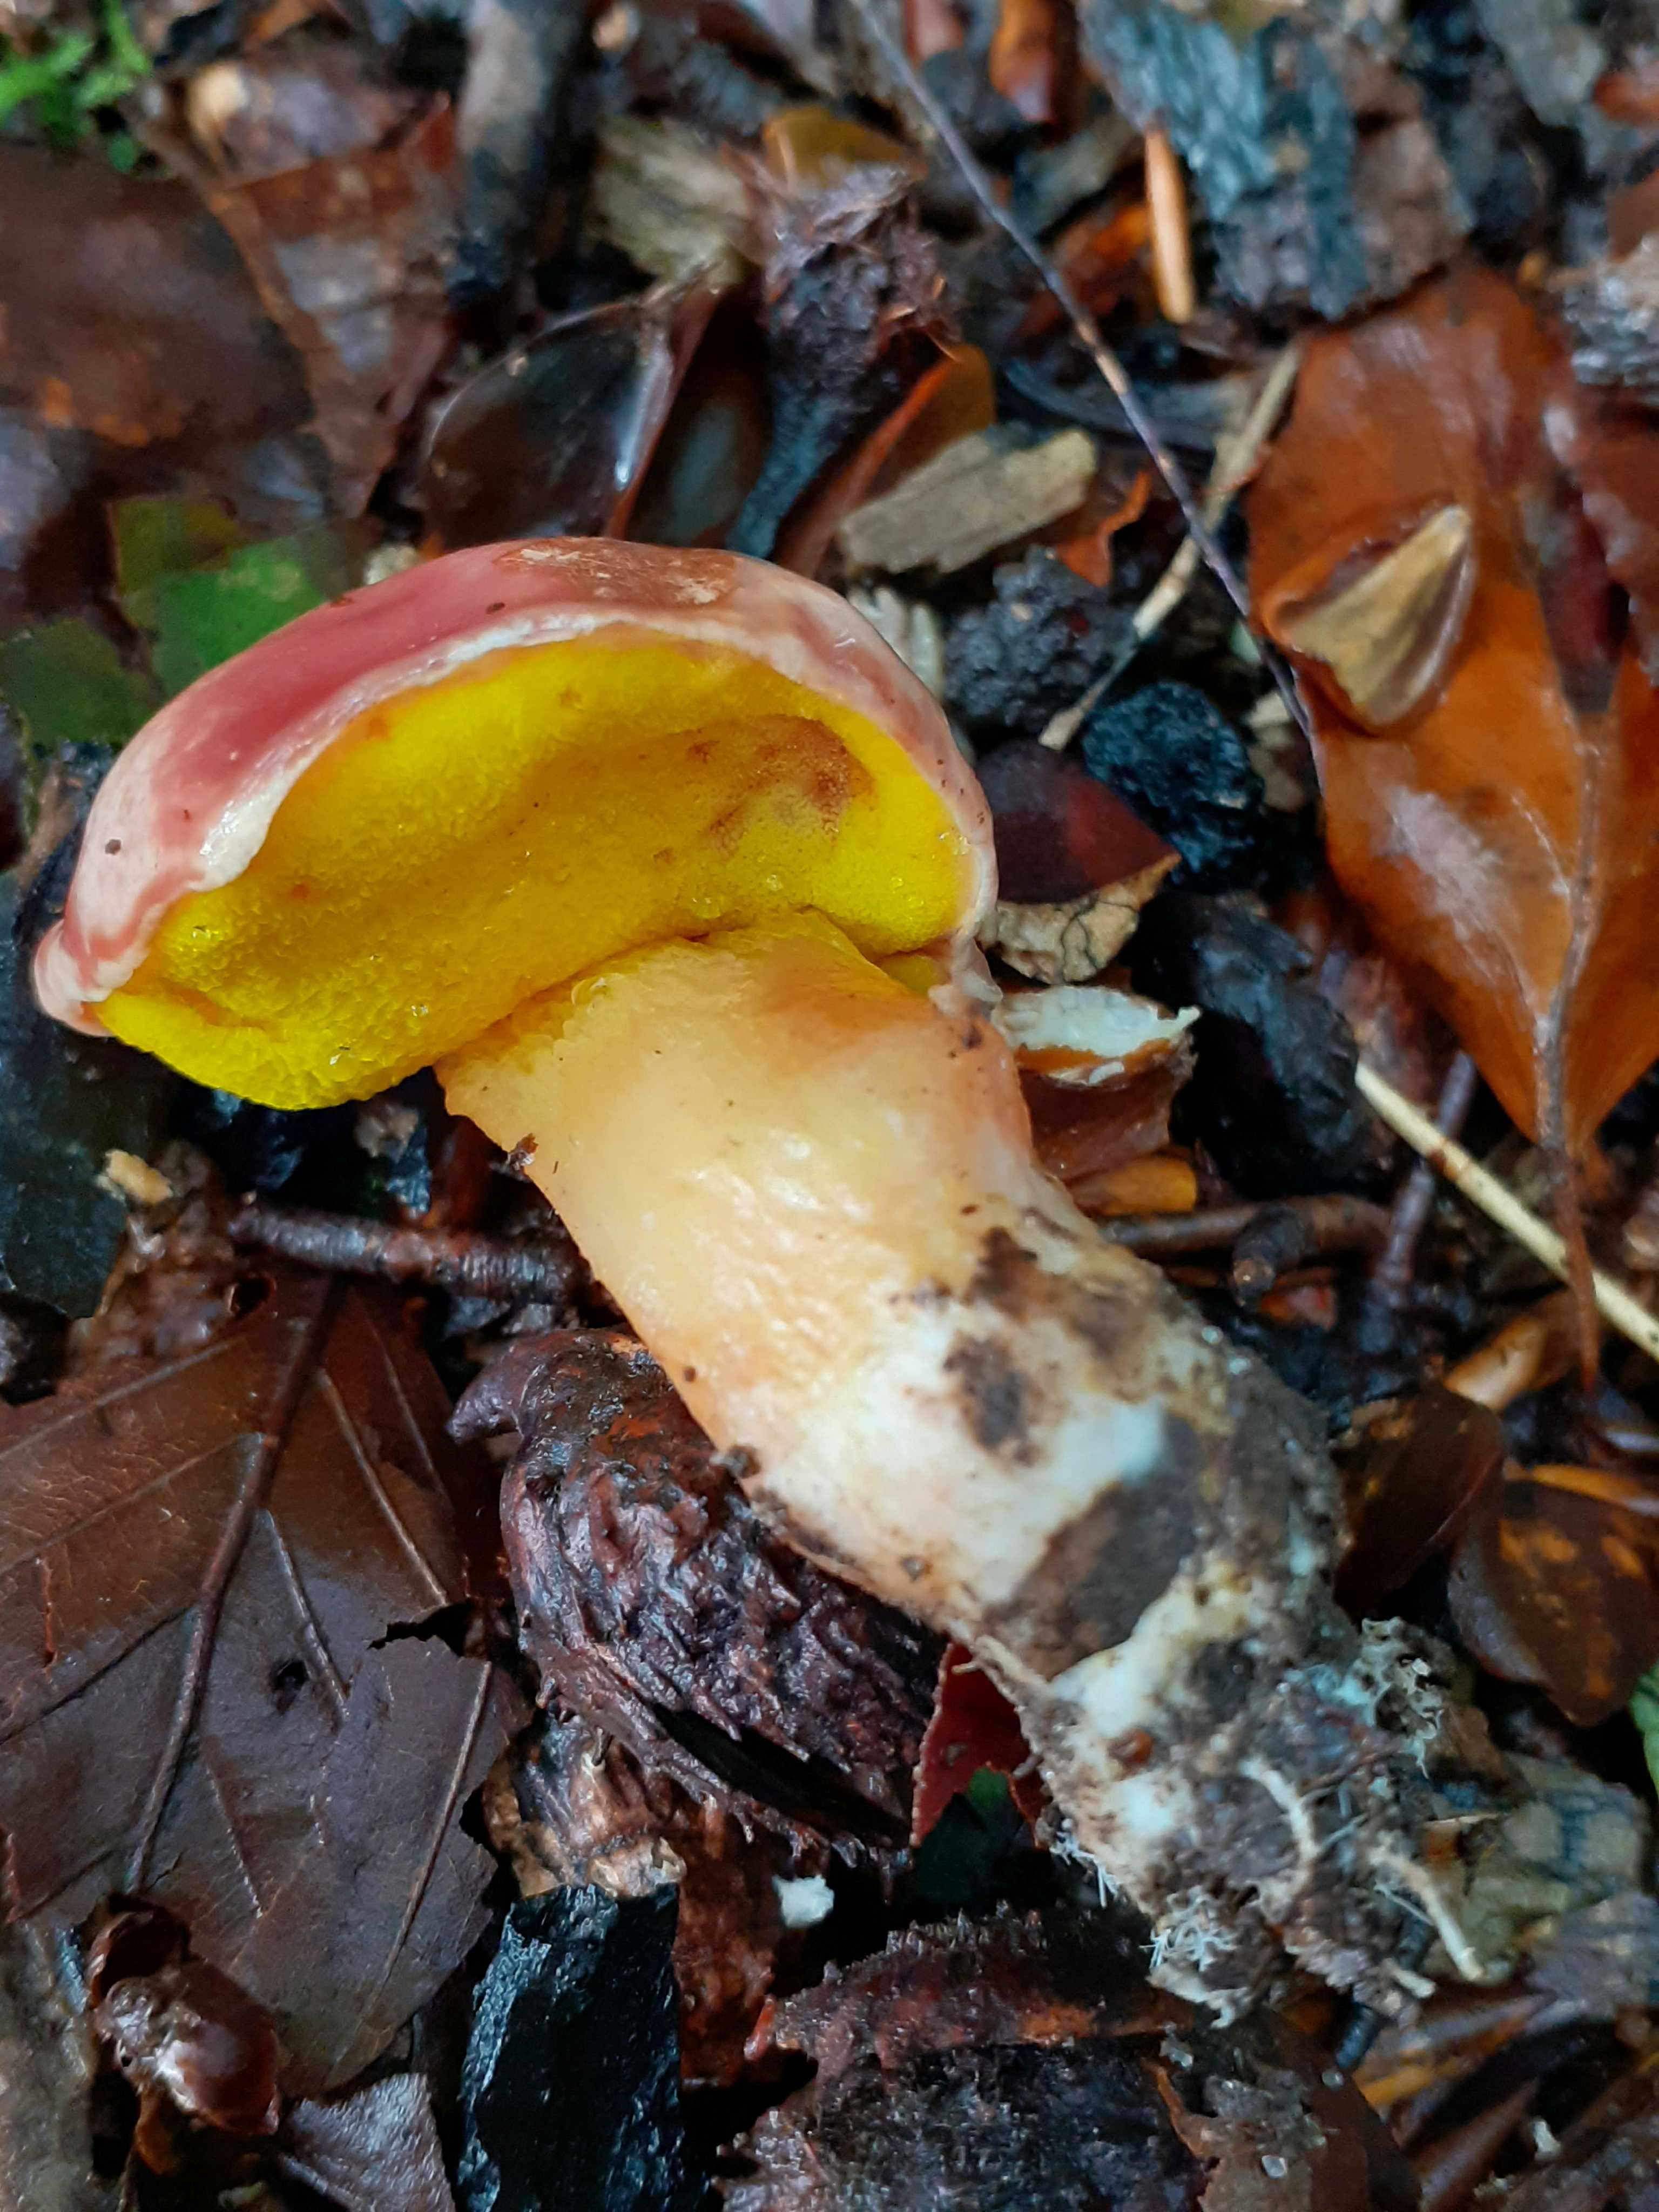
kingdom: Fungi
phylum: Basidiomycota
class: Agaricomycetes
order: Boletales
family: Boletaceae
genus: Aureoboletus
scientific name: Aureoboletus gentilis
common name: guldrørhat
